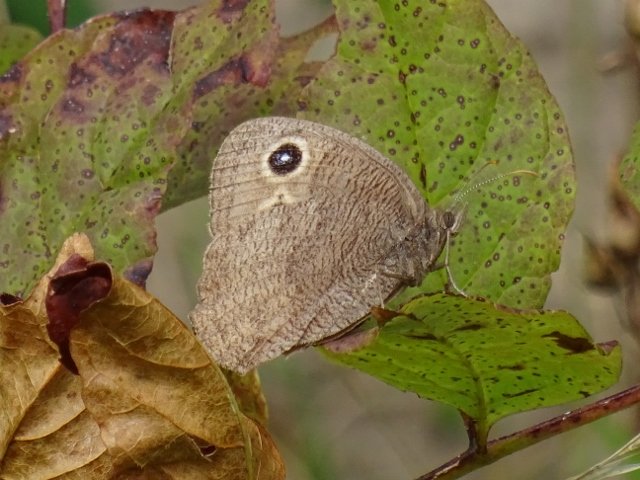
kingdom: Animalia
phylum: Arthropoda
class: Insecta
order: Lepidoptera
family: Nymphalidae
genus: Cercyonis
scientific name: Cercyonis pegala
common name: Common Wood-Nymph
